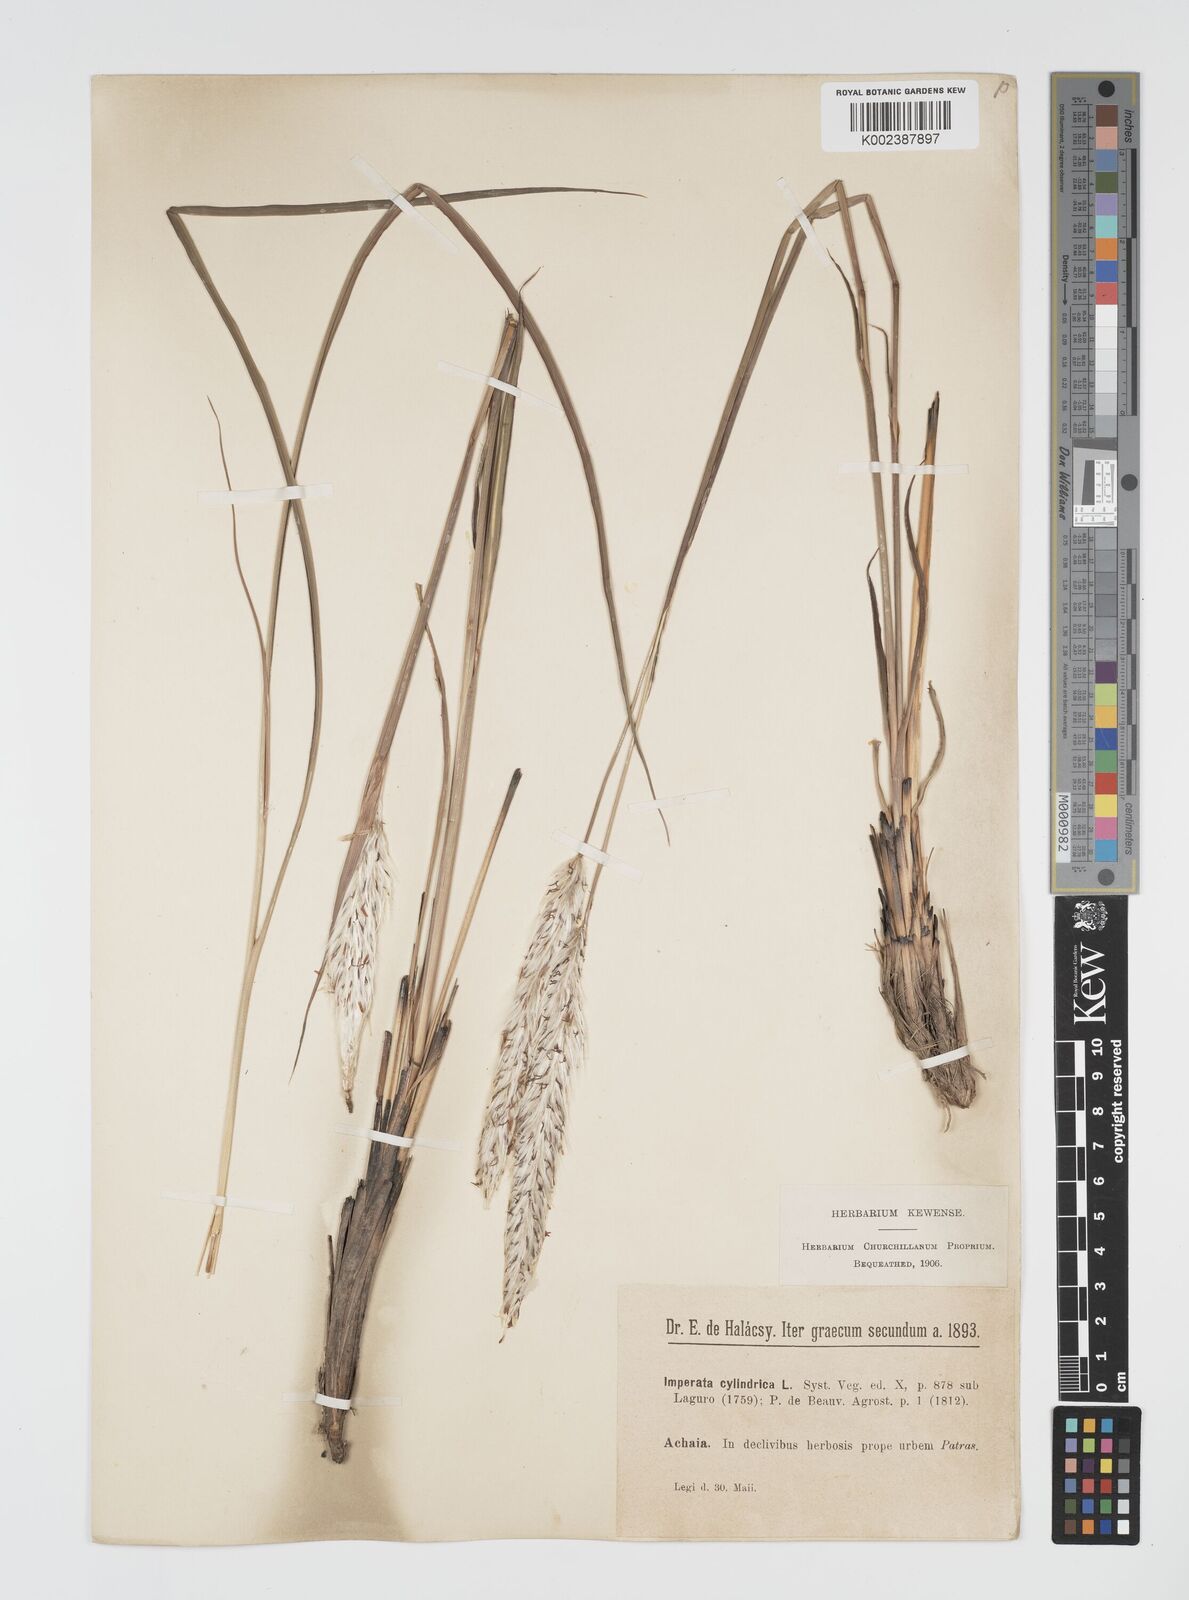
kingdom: Plantae
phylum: Tracheophyta
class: Liliopsida
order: Poales
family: Poaceae
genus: Imperata
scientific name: Imperata cylindrica
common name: Cogongrass
